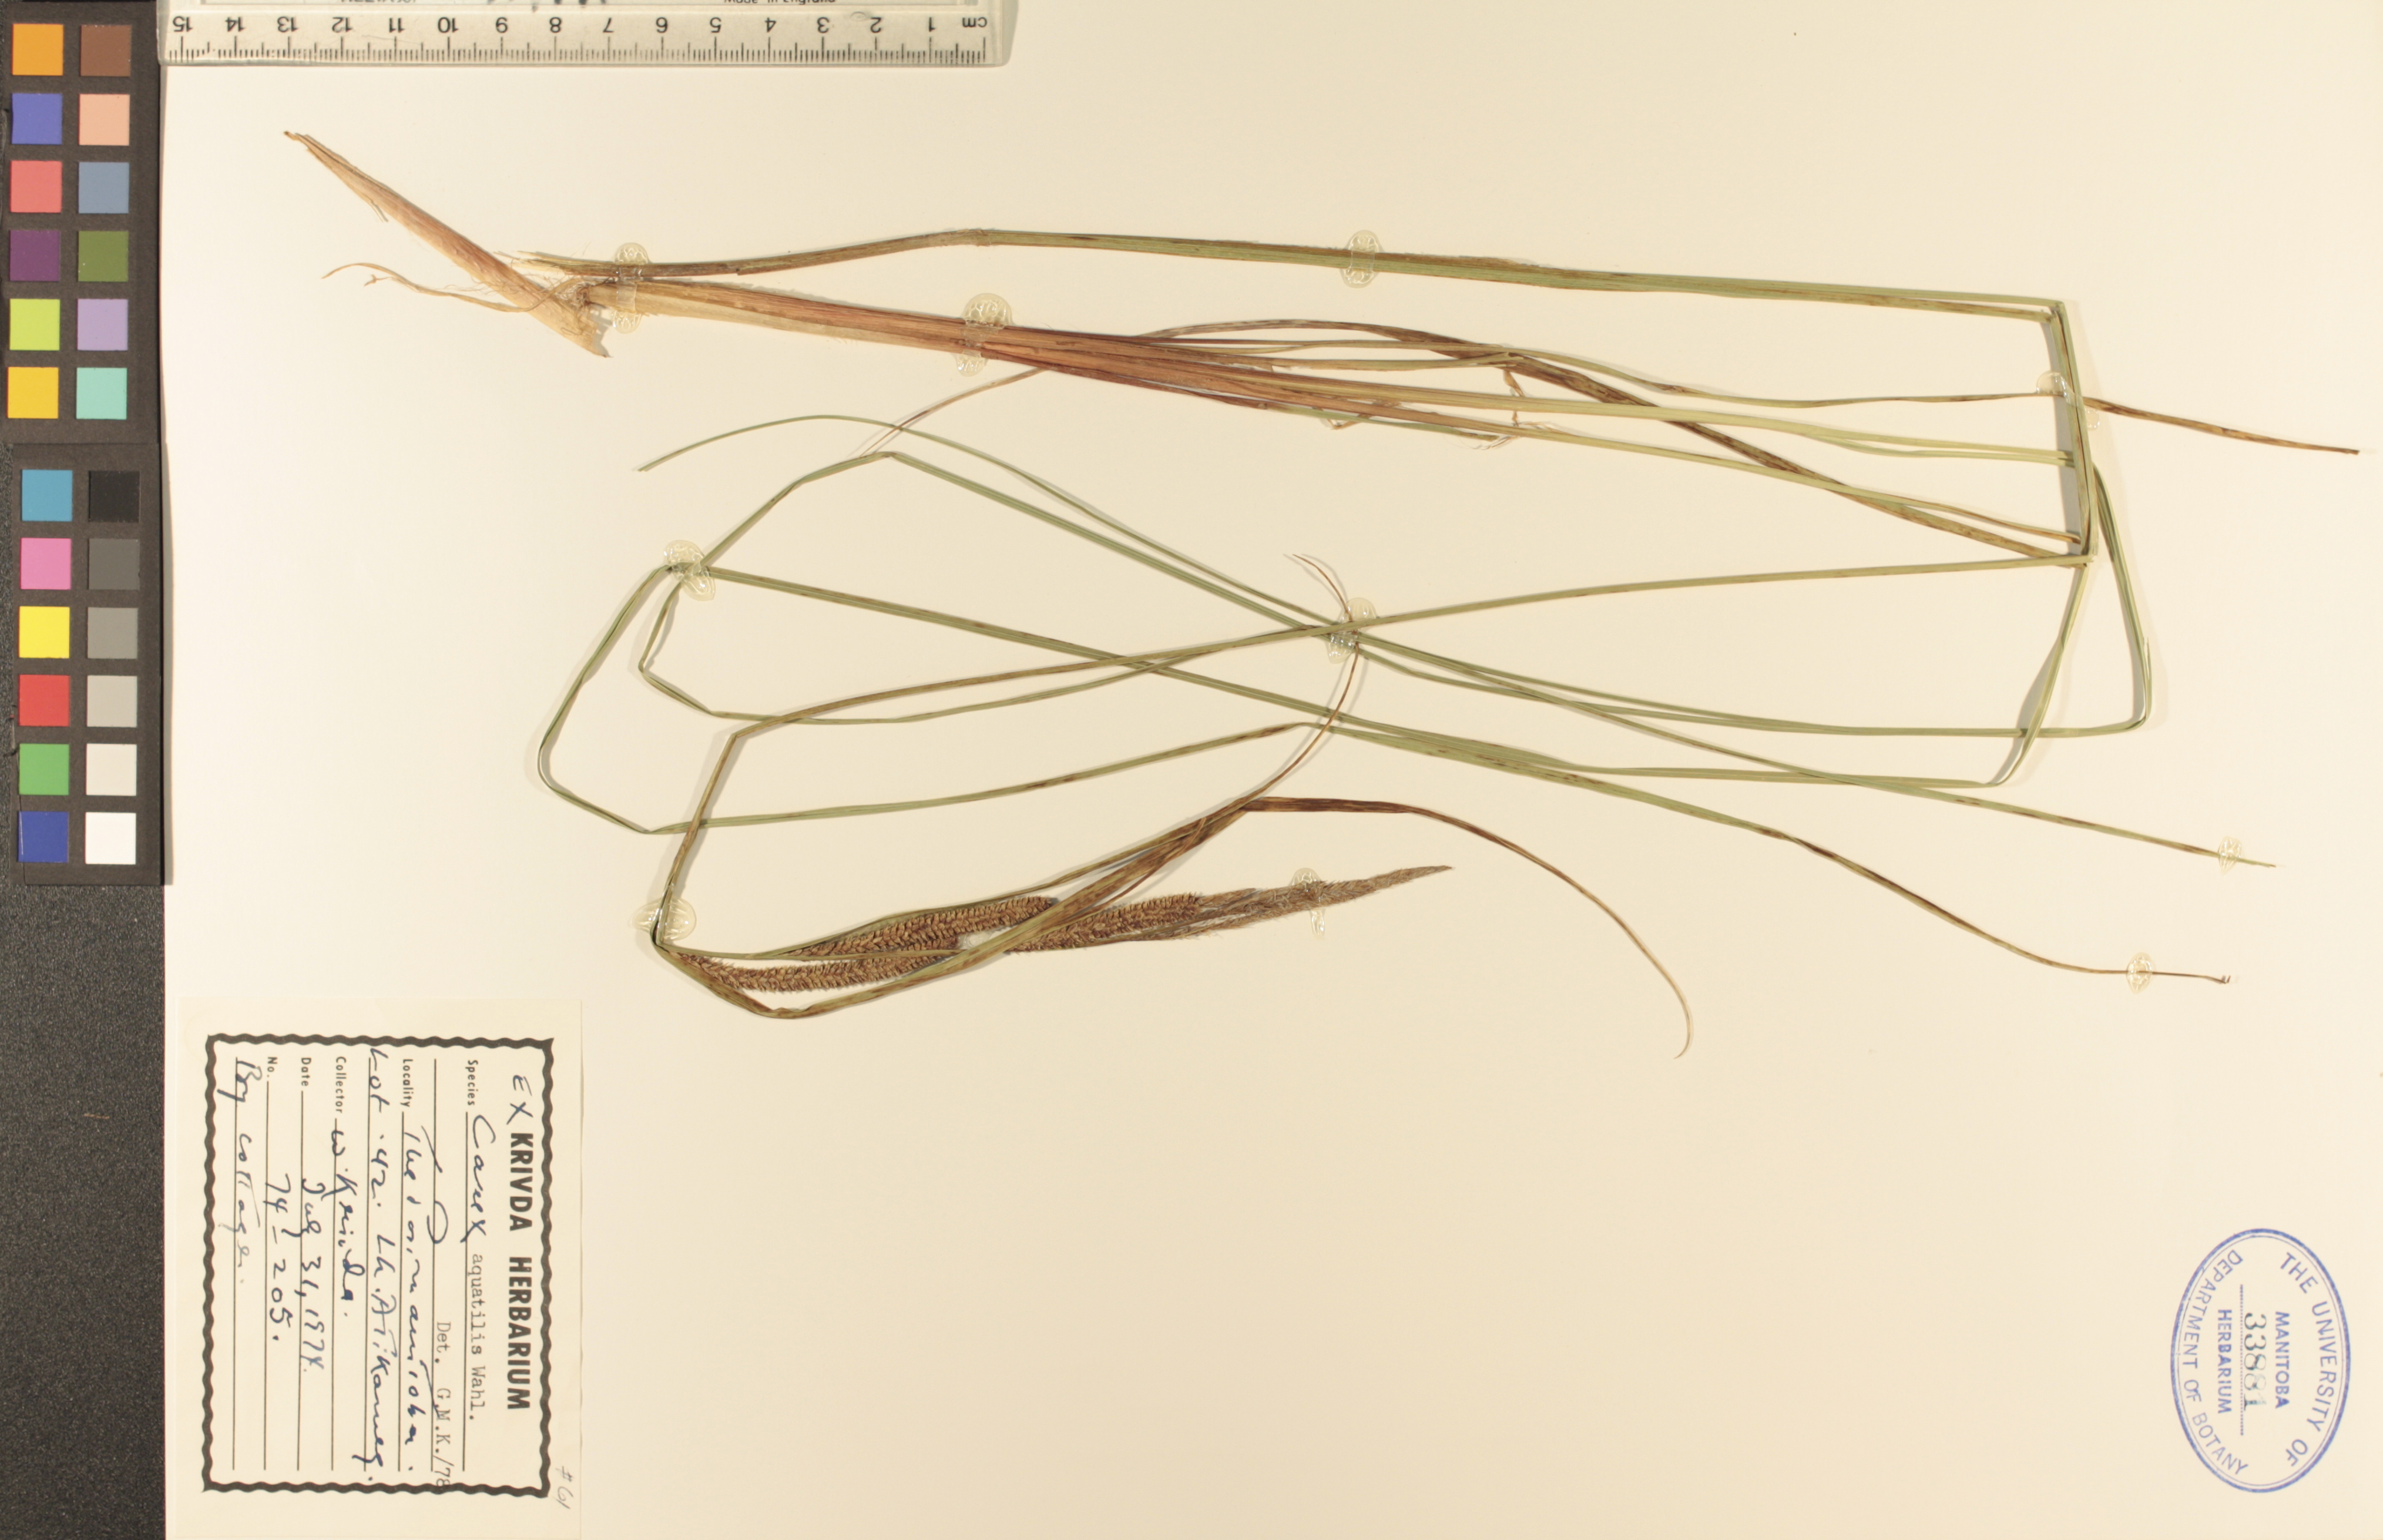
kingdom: Plantae
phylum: Tracheophyta
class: Liliopsida
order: Poales
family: Cyperaceae
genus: Carex
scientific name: Carex aquatilis
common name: Water sedge
